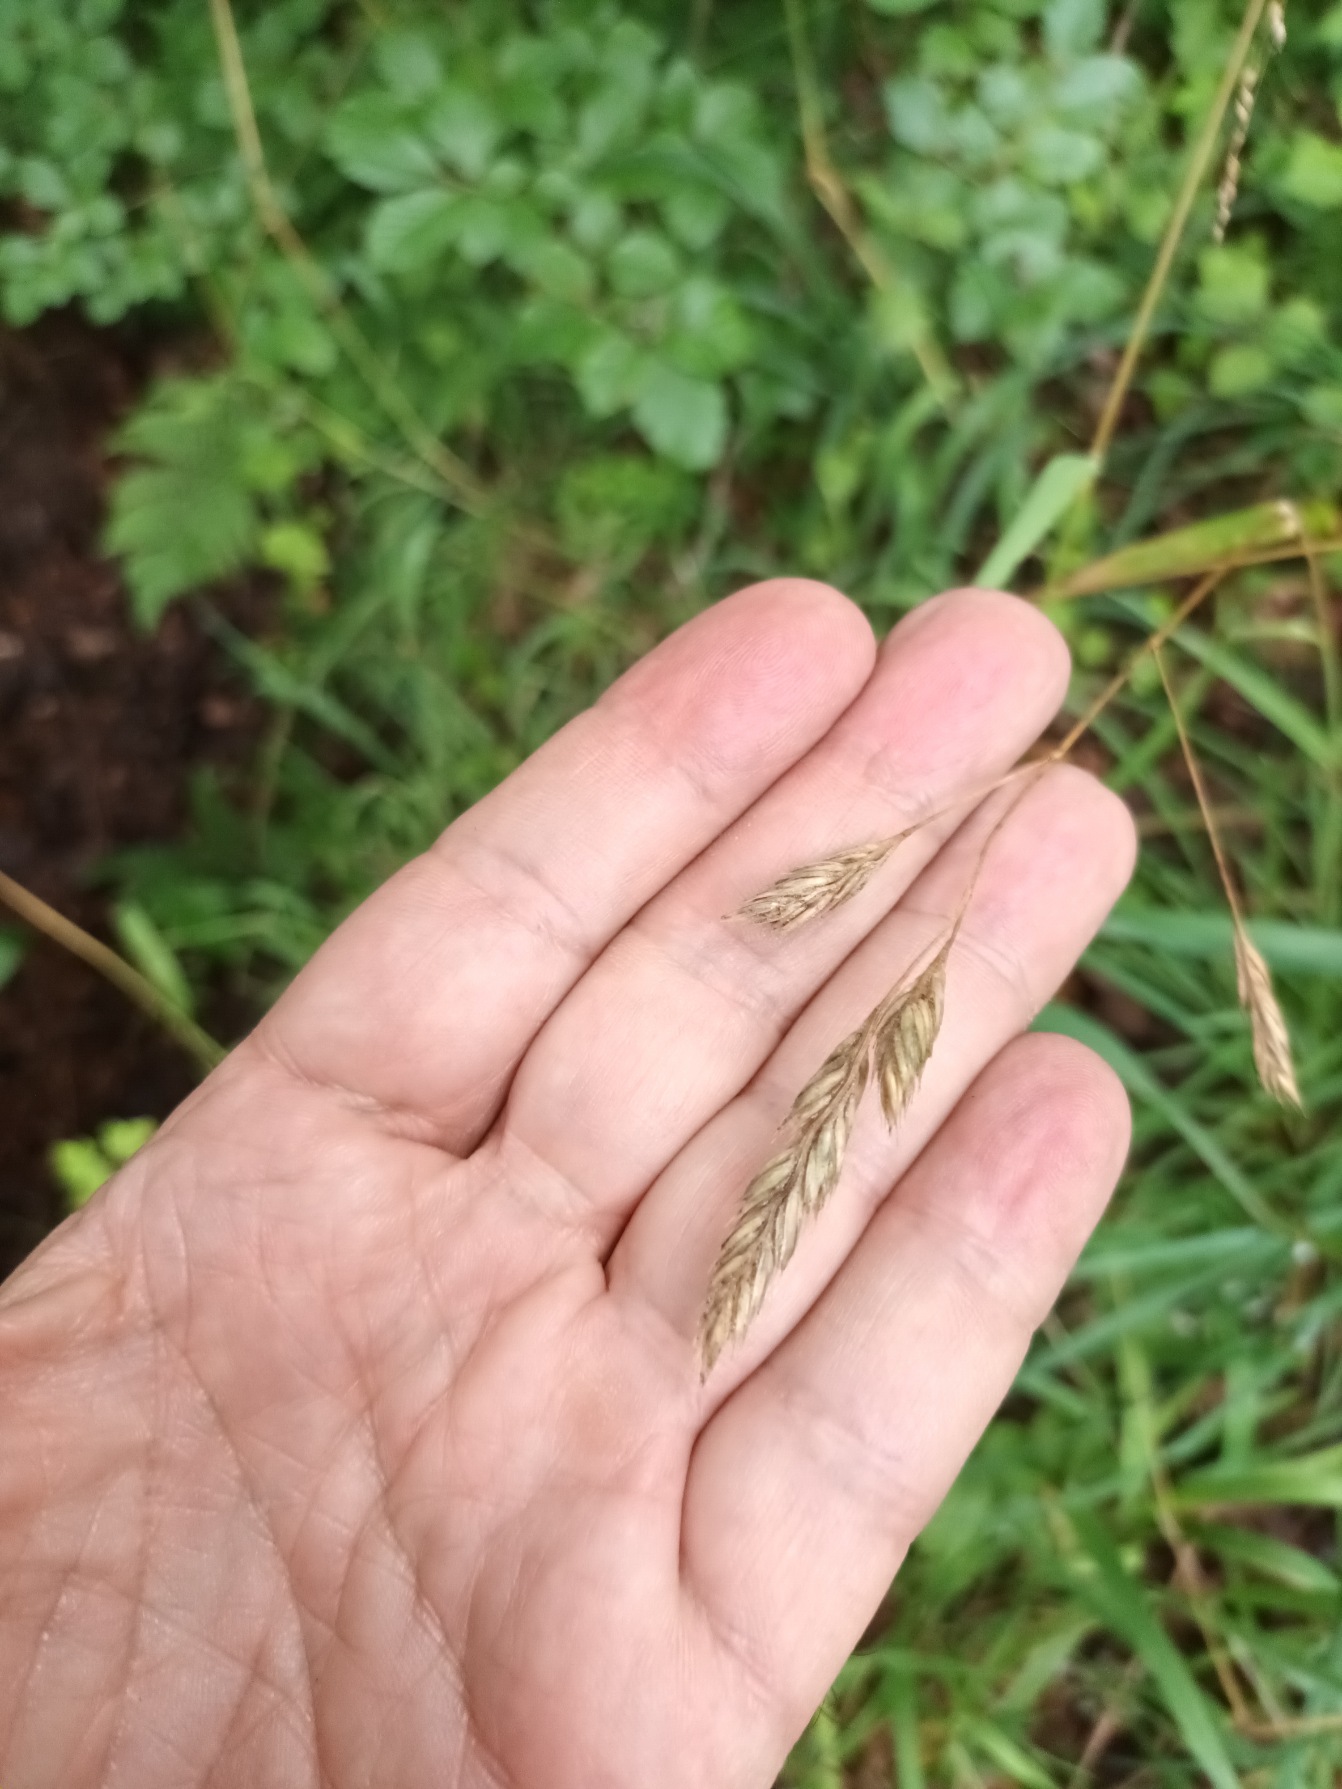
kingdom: Plantae
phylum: Tracheophyta
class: Liliopsida
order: Poales
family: Poaceae
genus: Dactylis
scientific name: Dactylis glomerata
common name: Almindelig hundegræs
